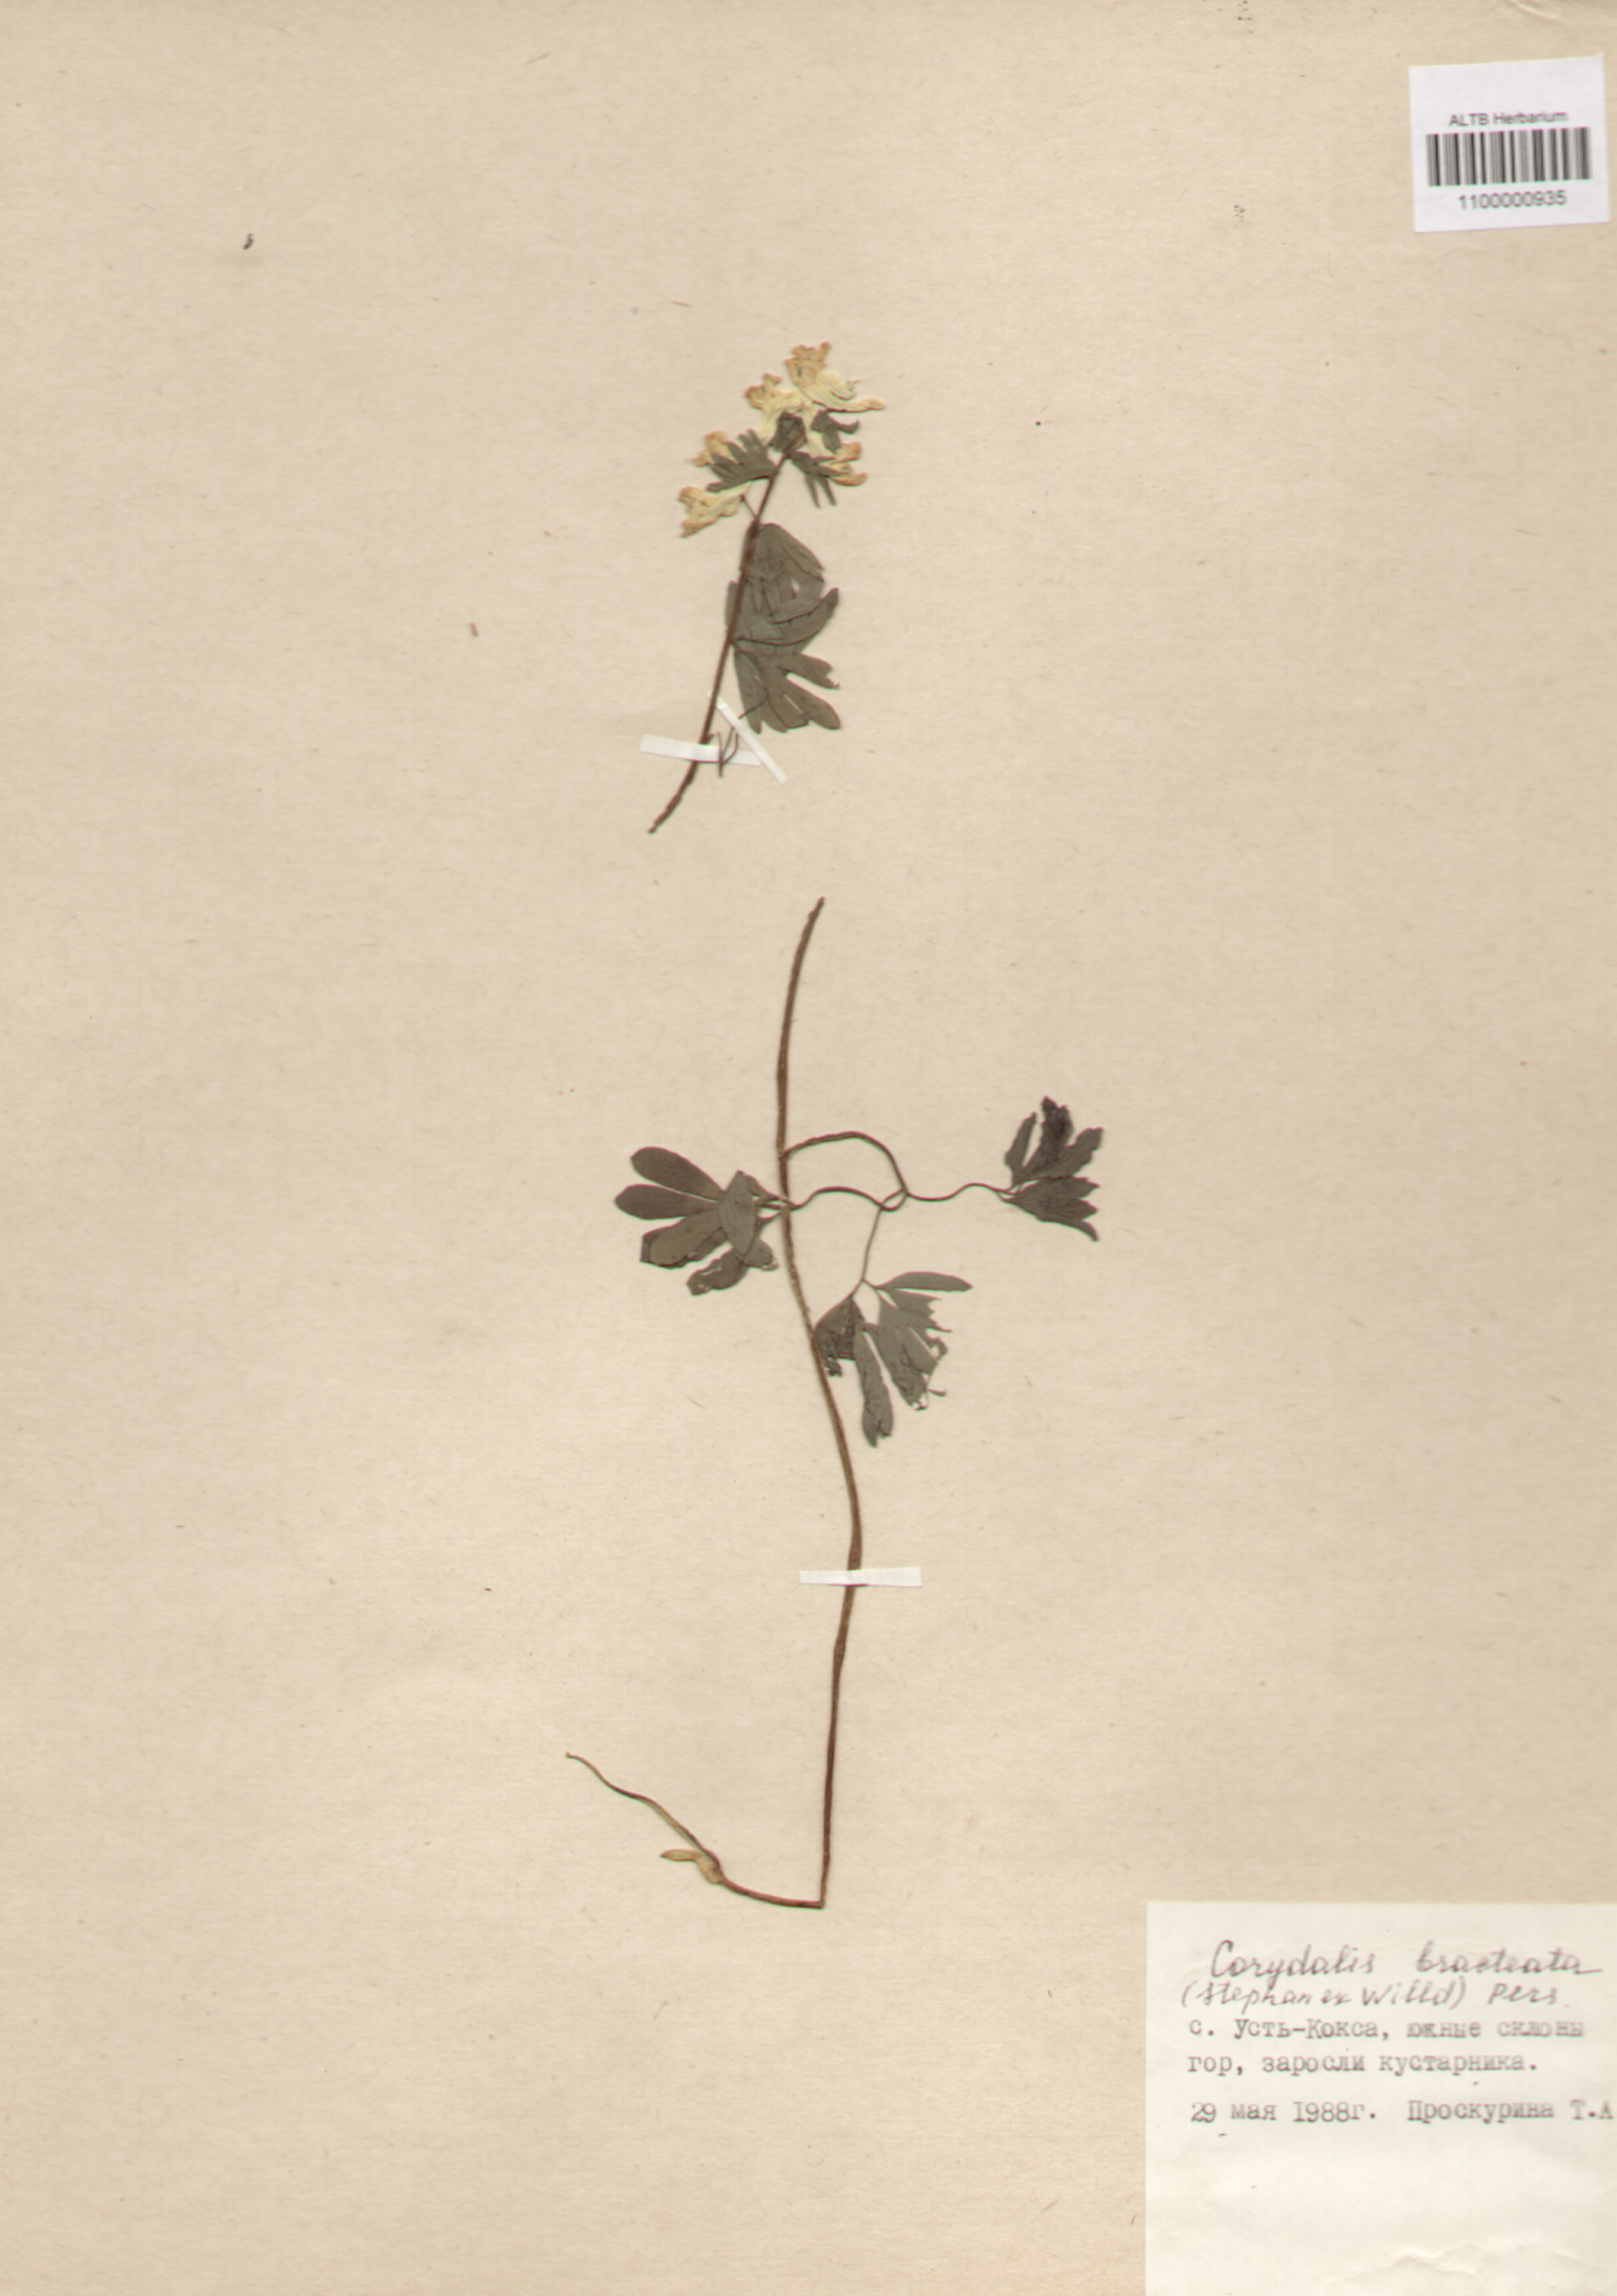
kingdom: Plantae
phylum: Tracheophyta
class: Magnoliopsida
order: Ranunculales
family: Papaveraceae
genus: Corydalis
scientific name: Corydalis bracteata
